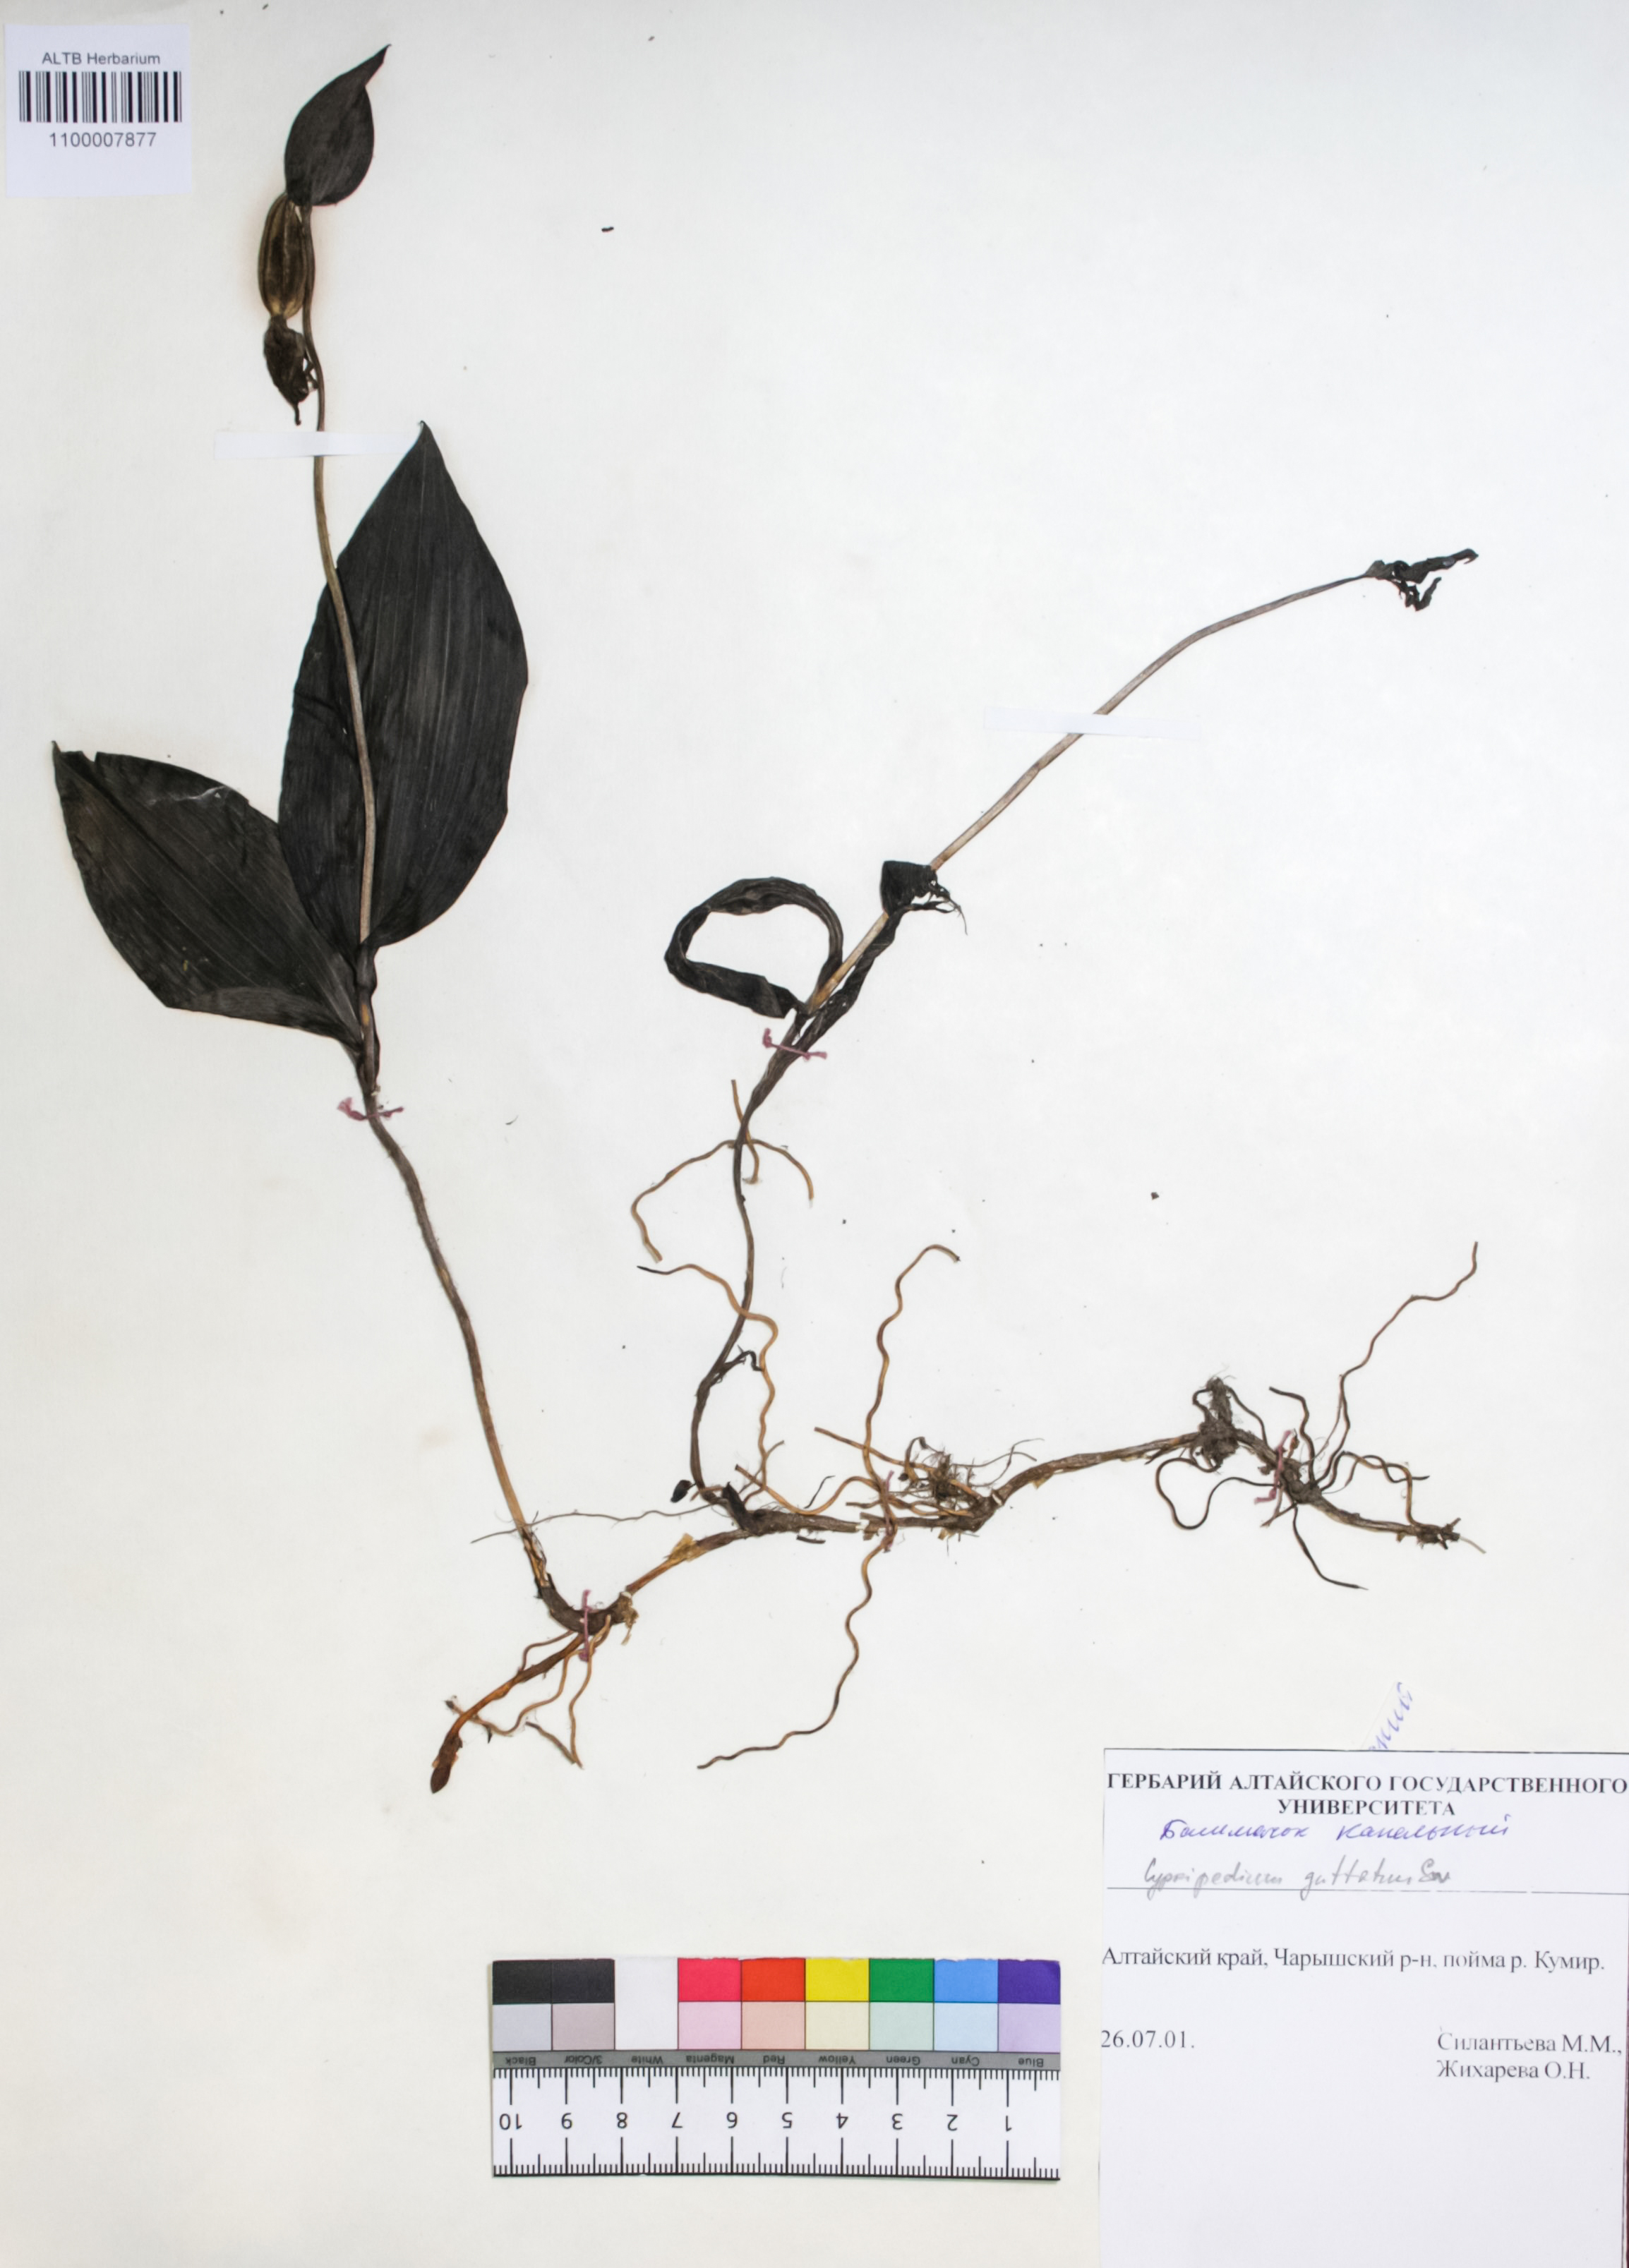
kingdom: Plantae
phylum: Tracheophyta
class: Liliopsida
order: Asparagales
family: Orchidaceae
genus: Cypripedium
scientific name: Cypripedium guttatum
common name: Pink lady slipper
